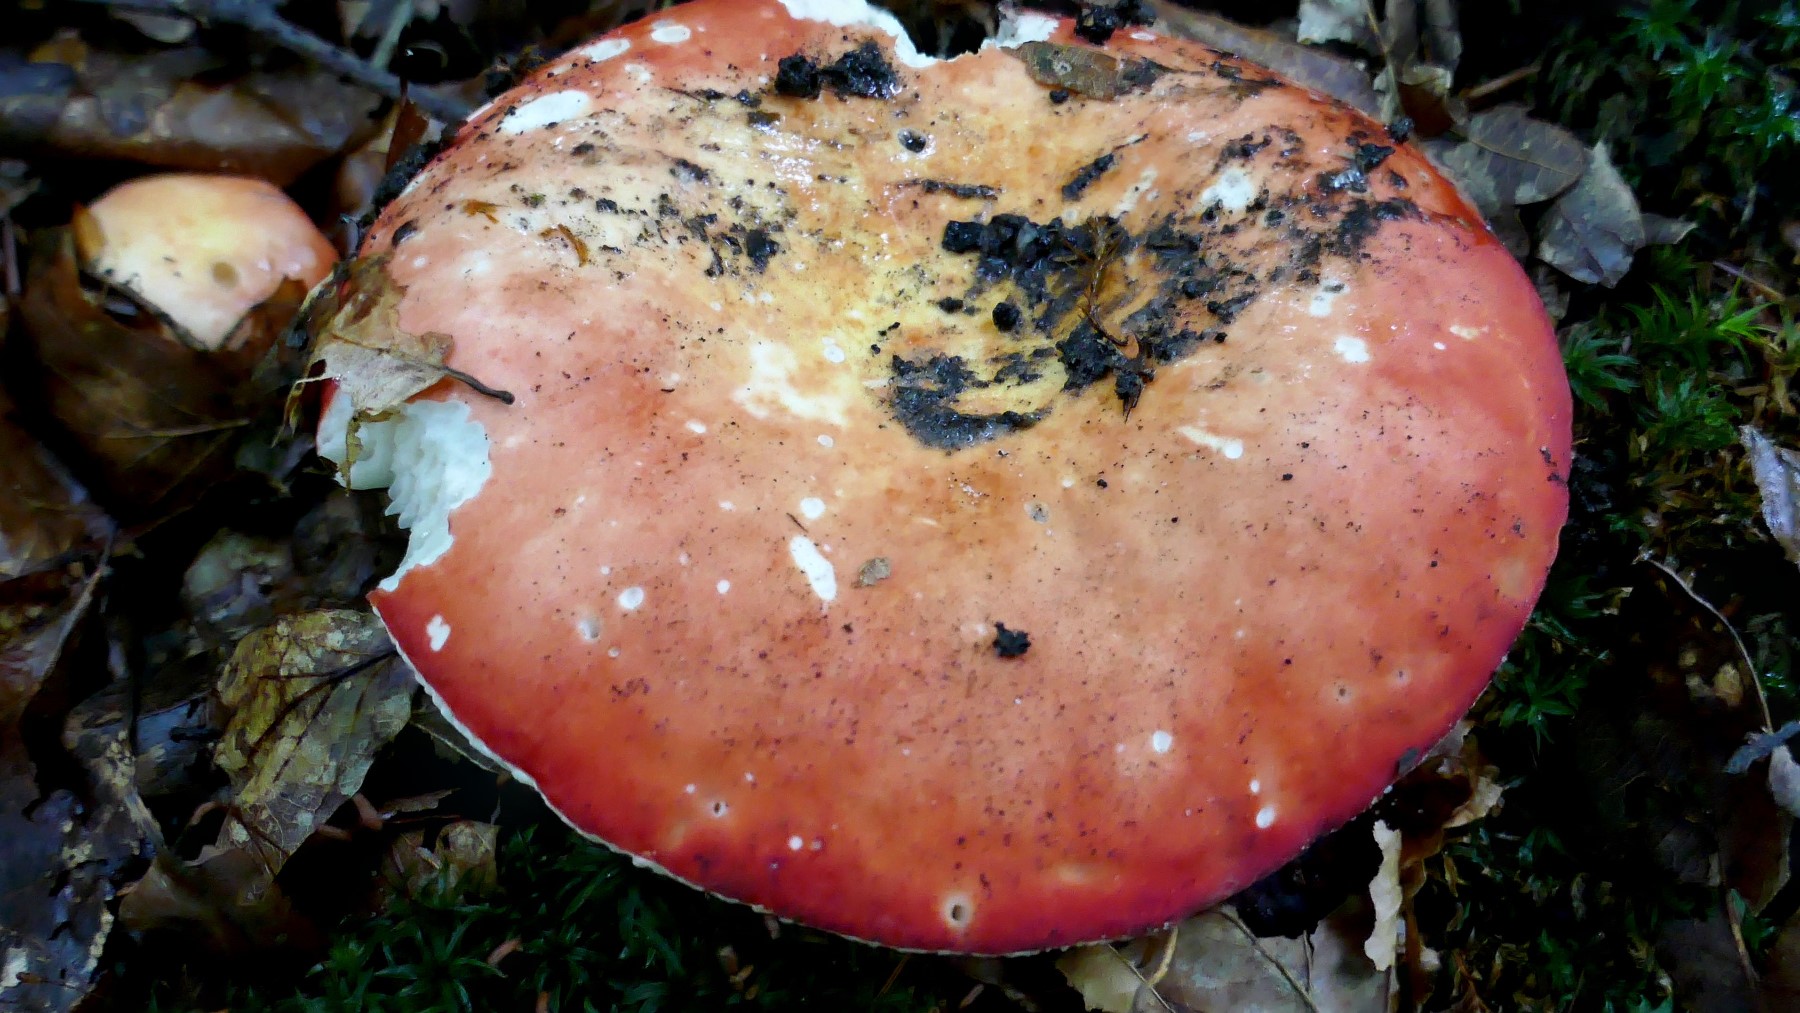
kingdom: Fungi
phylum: Basidiomycota
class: Agaricomycetes
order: Russulales
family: Russulaceae
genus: Russula
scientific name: Russula velenovskyi
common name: orangerød skørhat
